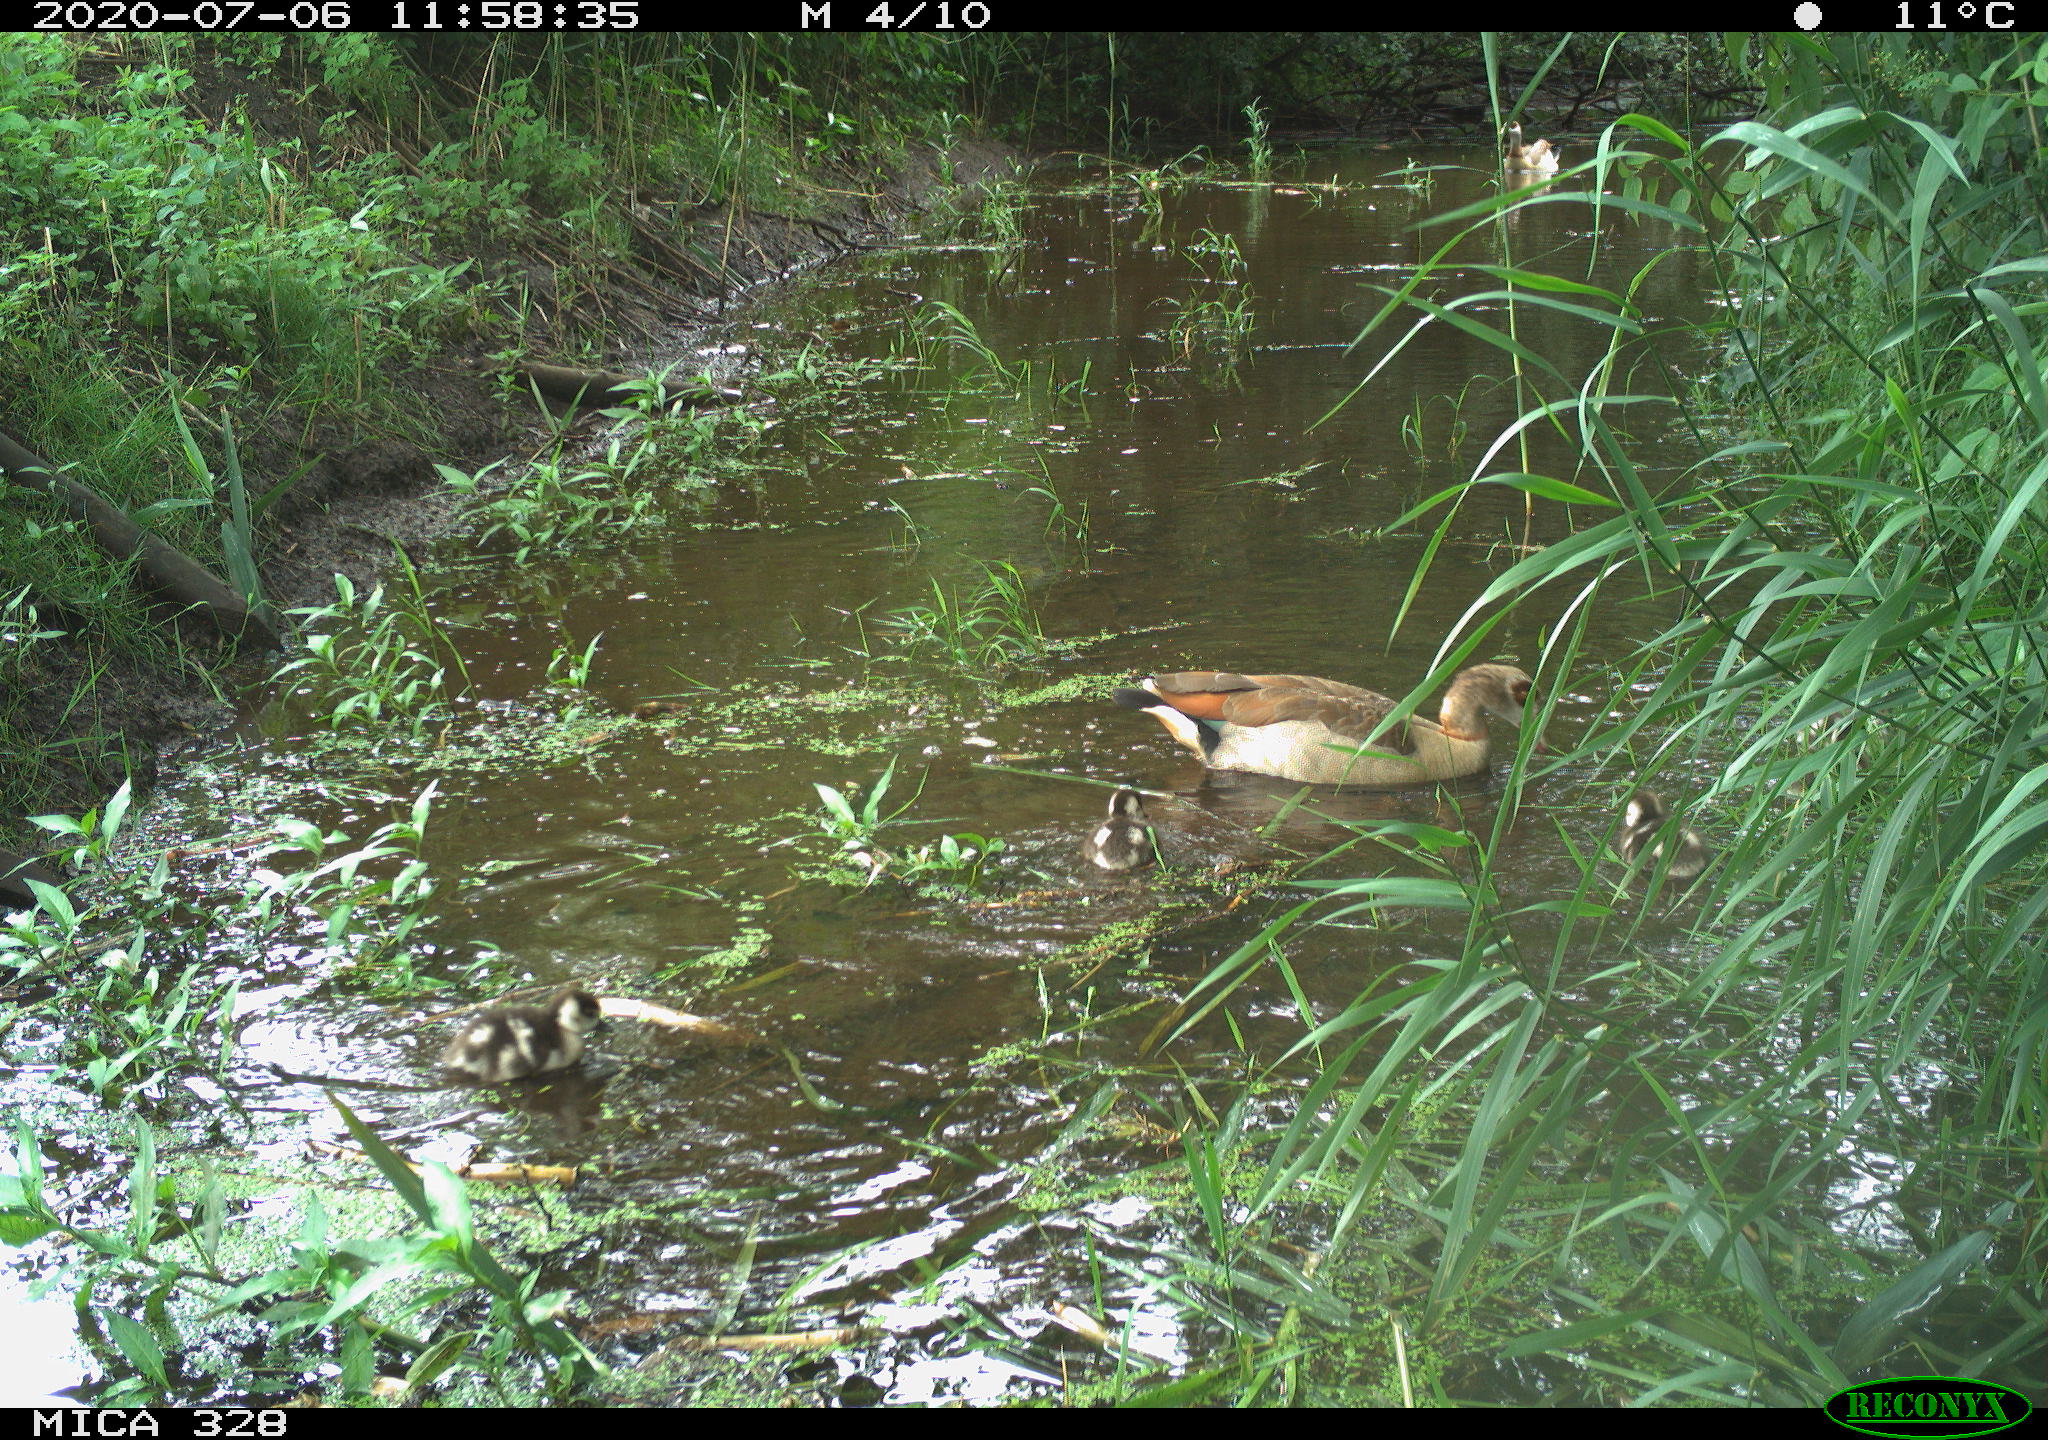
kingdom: Animalia
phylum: Chordata
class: Aves
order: Anseriformes
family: Anatidae
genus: Alopochen
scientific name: Alopochen aegyptiaca
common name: Egyptian goose
